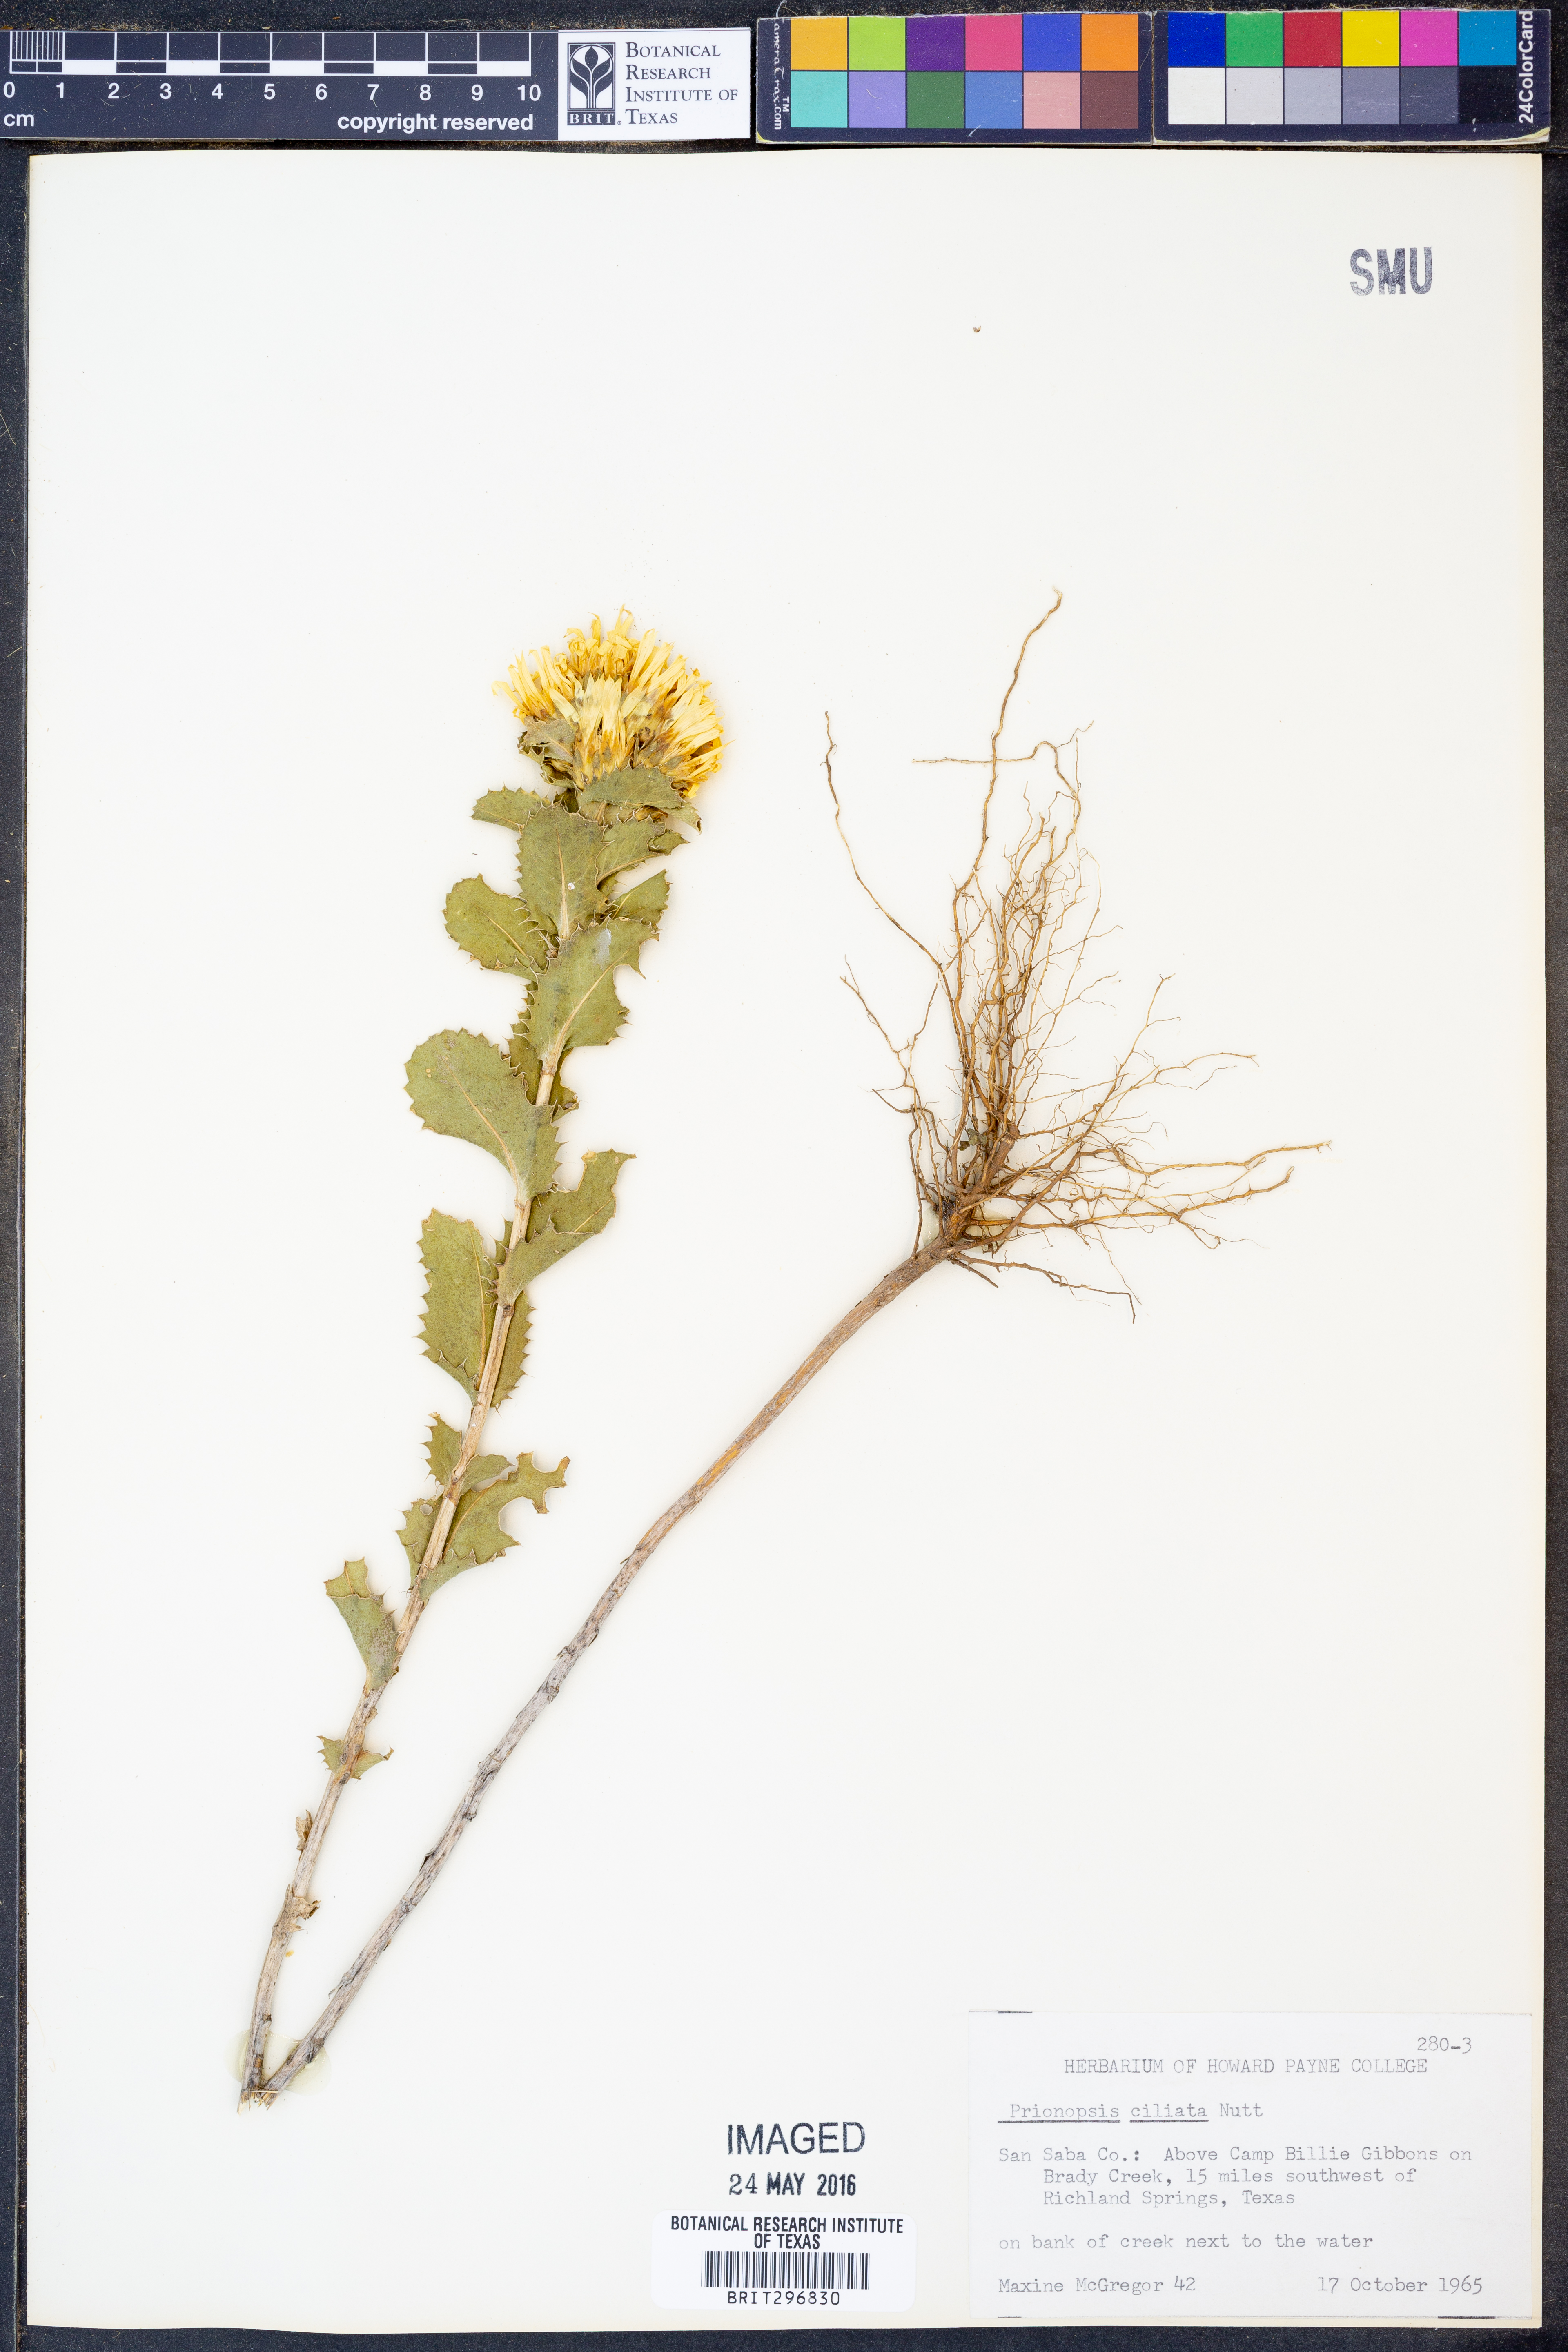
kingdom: Plantae
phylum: Tracheophyta
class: Magnoliopsida
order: Asterales
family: Asteraceae
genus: Grindelia
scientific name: Grindelia ciliata
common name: Goldenweed
